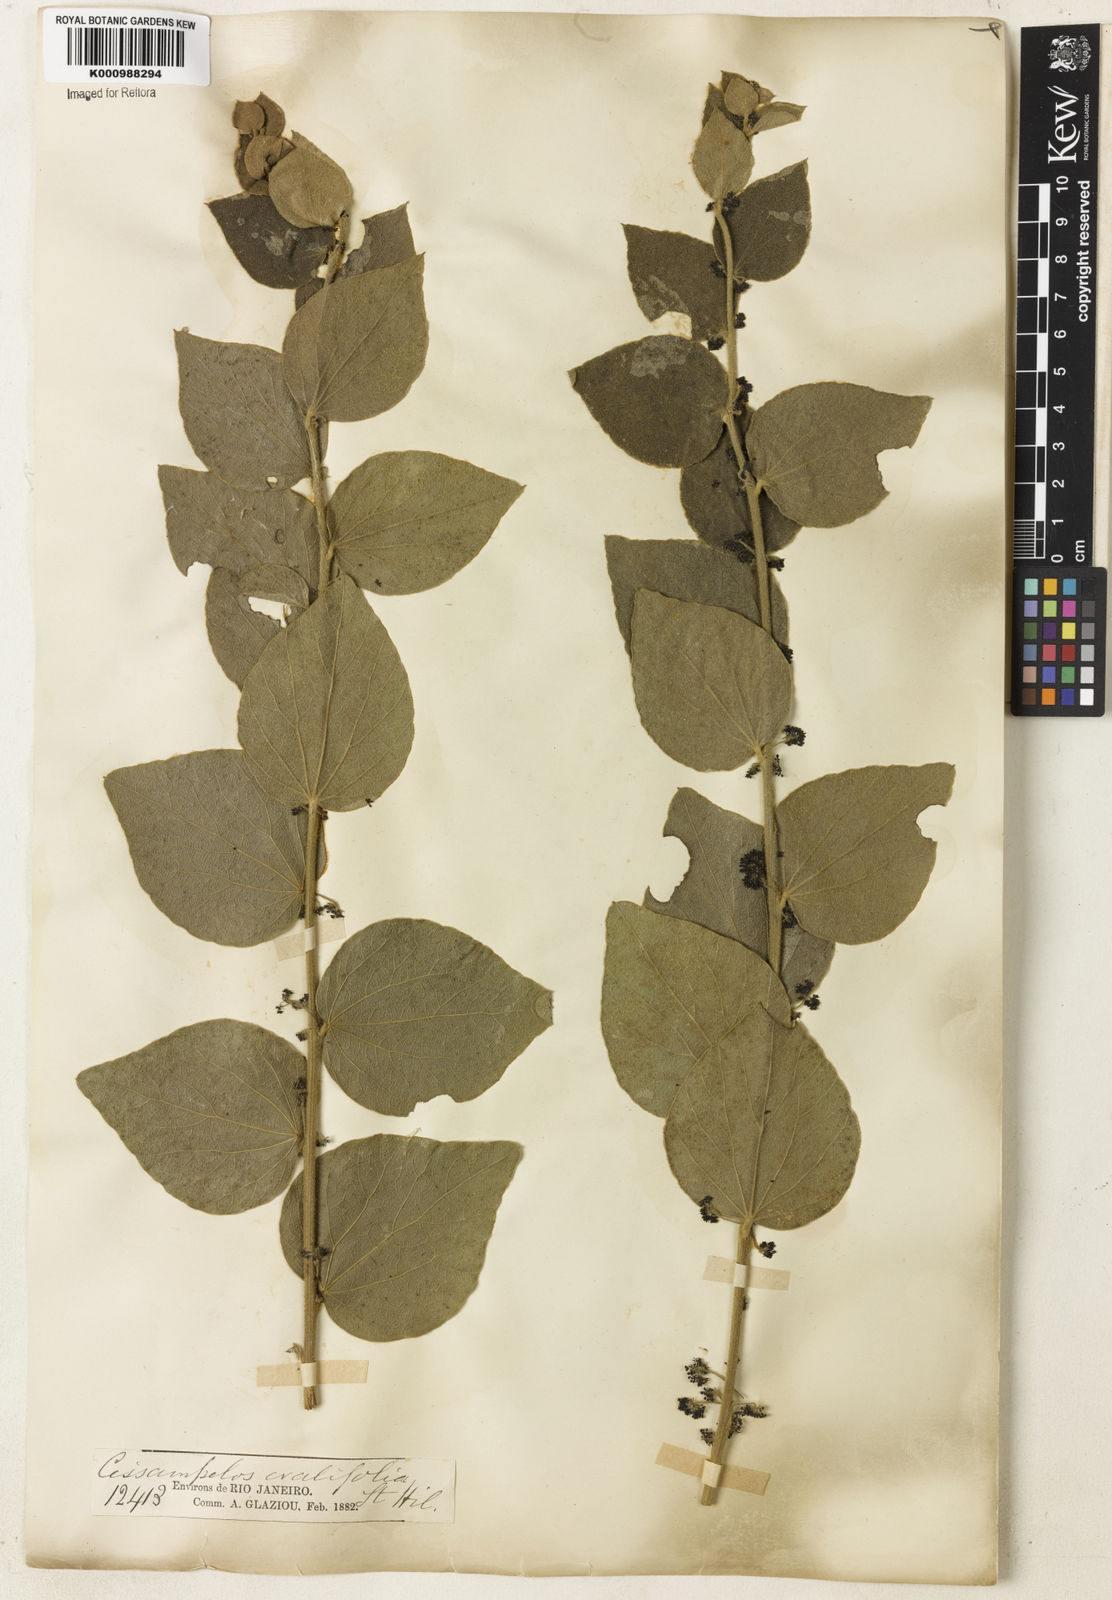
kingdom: Plantae
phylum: Tracheophyta
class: Magnoliopsida
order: Ranunculales
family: Menispermaceae
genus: Cissampelos
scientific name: Cissampelos ovalifolia
